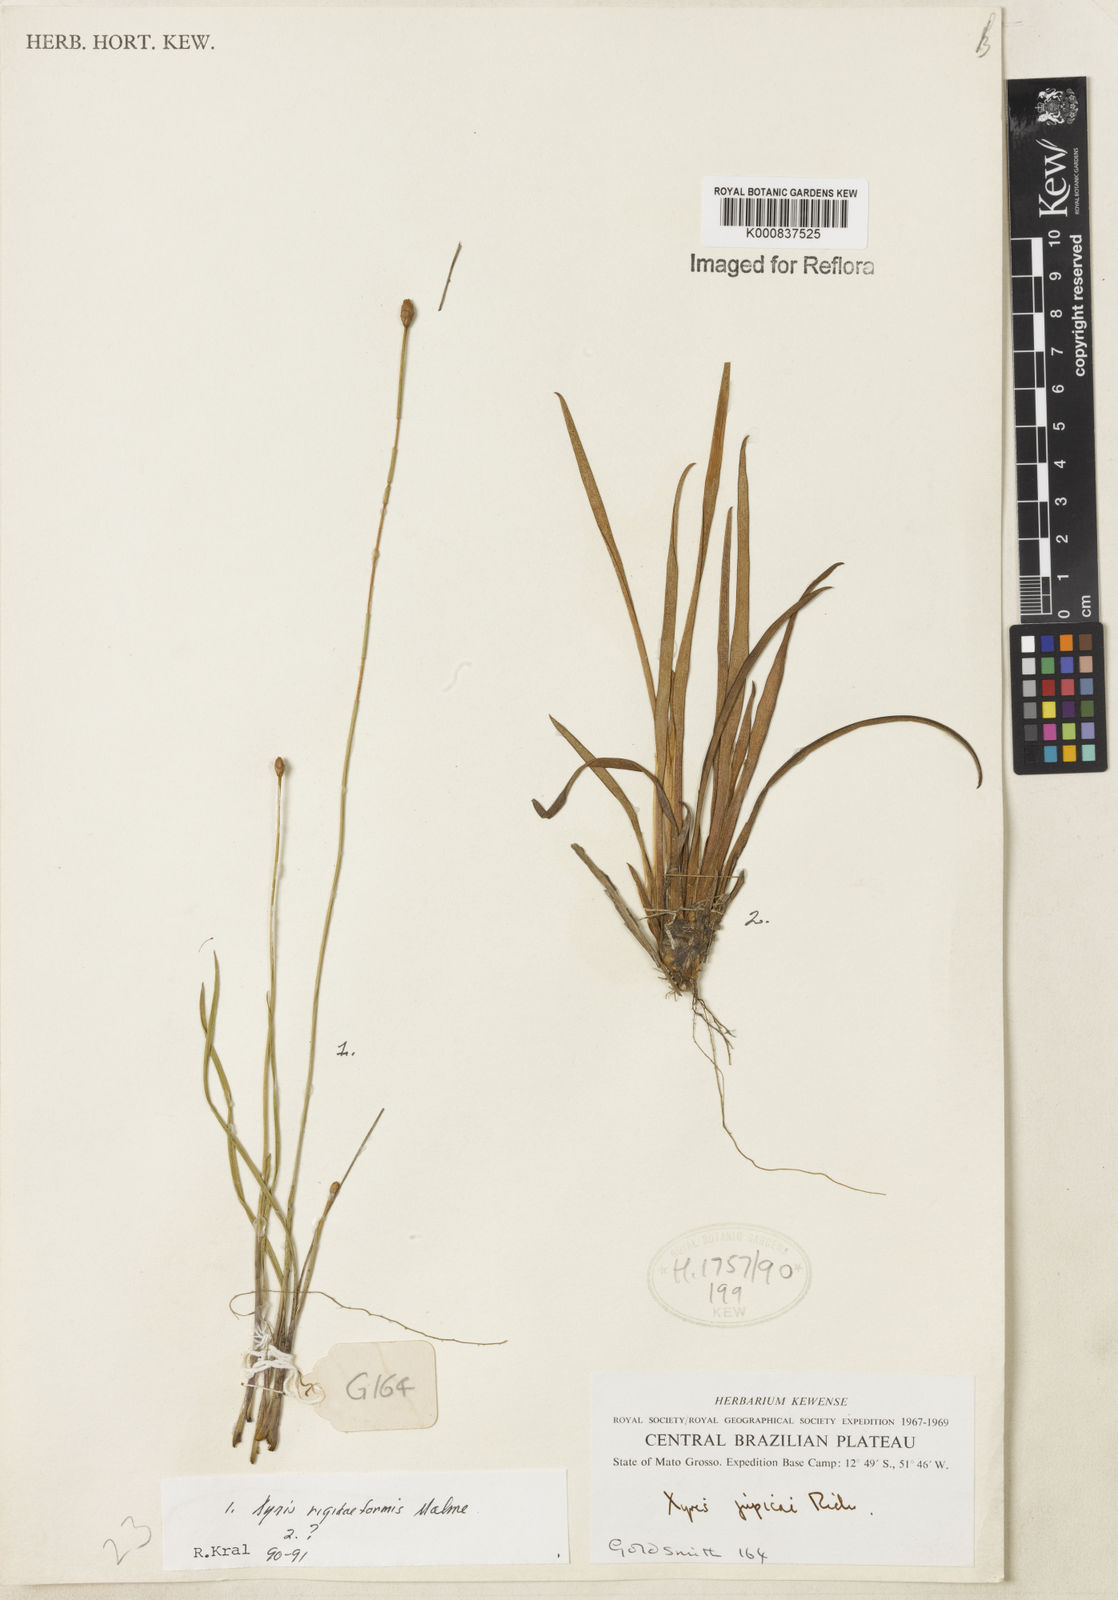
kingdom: Plantae
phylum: Tracheophyta
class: Liliopsida
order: Poales
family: Xyridaceae
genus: Xyris
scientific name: Xyris rigidiformis
